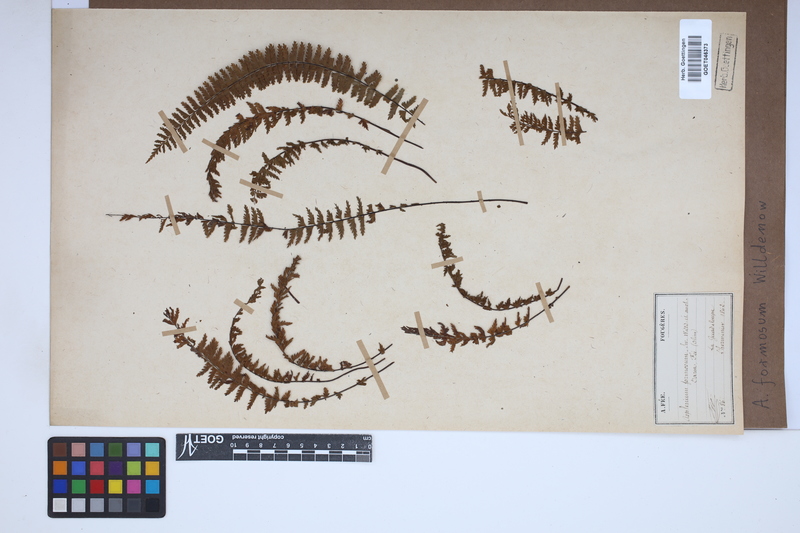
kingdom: Plantae
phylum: Tracheophyta
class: Polypodiopsida
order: Polypodiales
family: Aspleniaceae
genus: Asplenium
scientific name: Asplenium formosum
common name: Showy spleenwort
